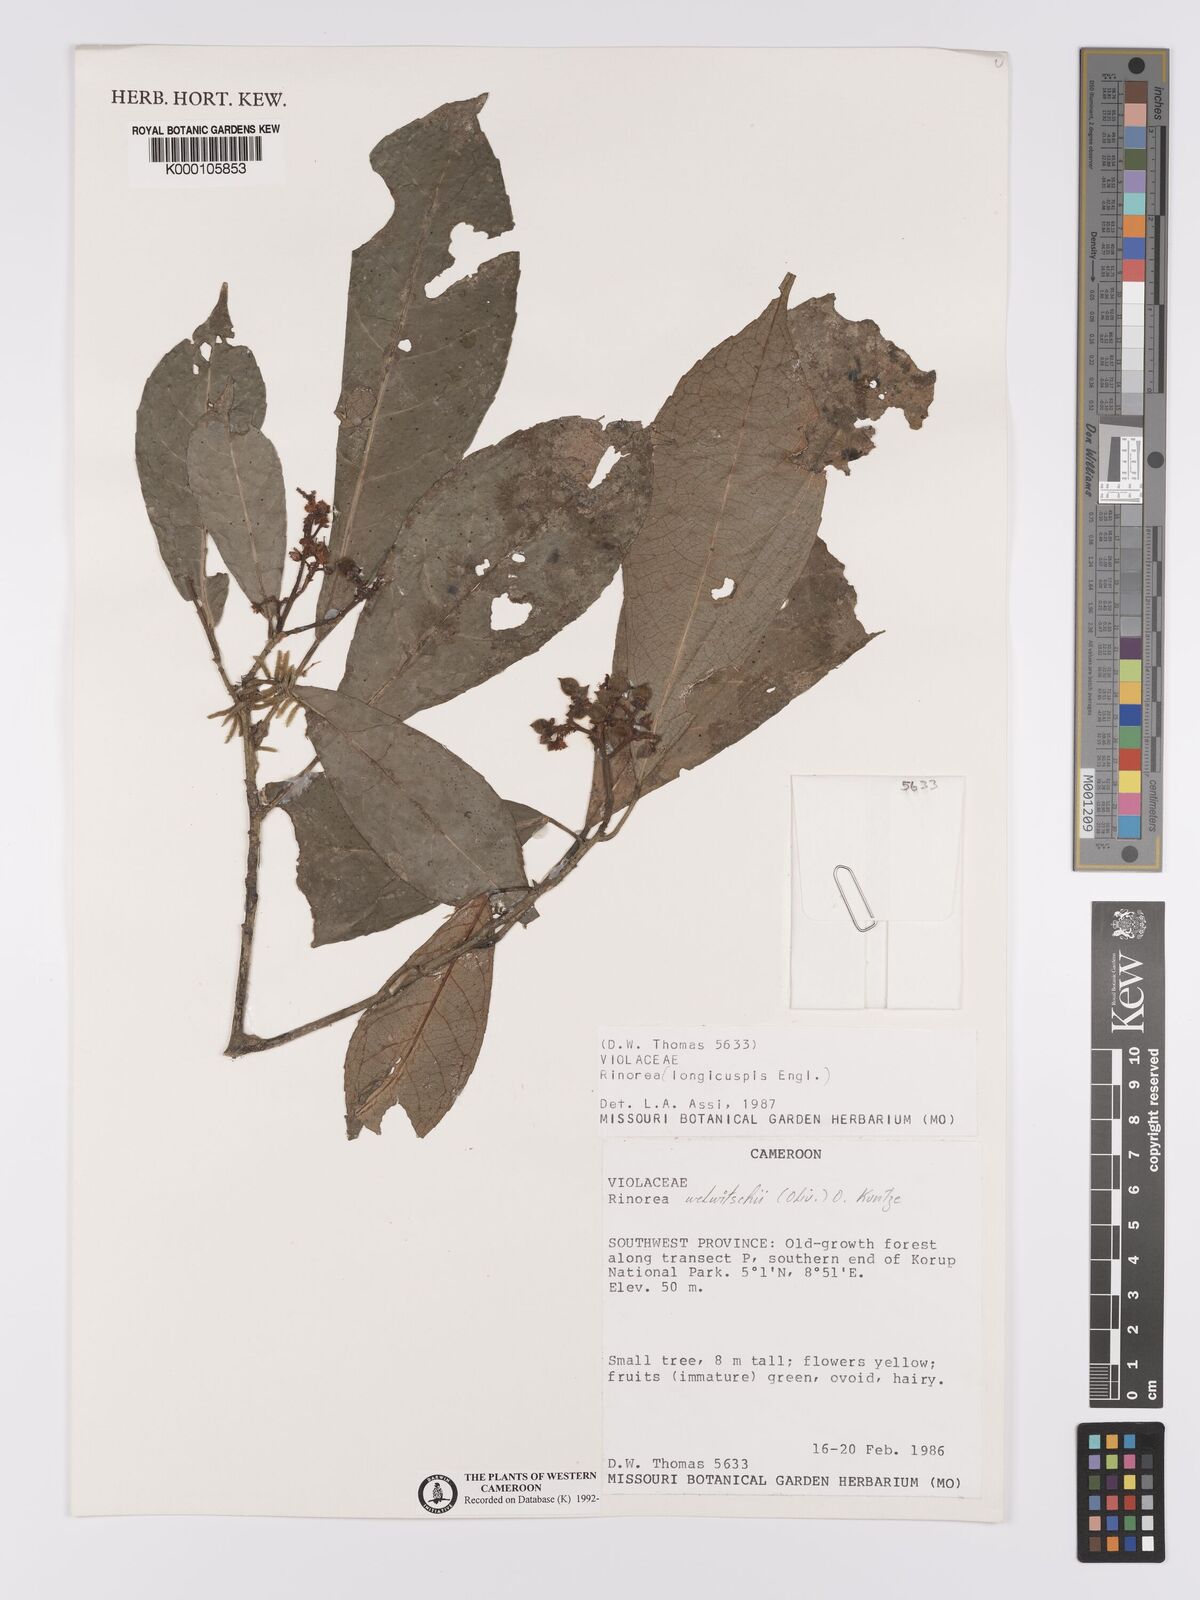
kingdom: Plantae
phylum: Tracheophyta
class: Magnoliopsida
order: Malpighiales
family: Violaceae
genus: Rinorea
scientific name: Rinorea welwitschii
